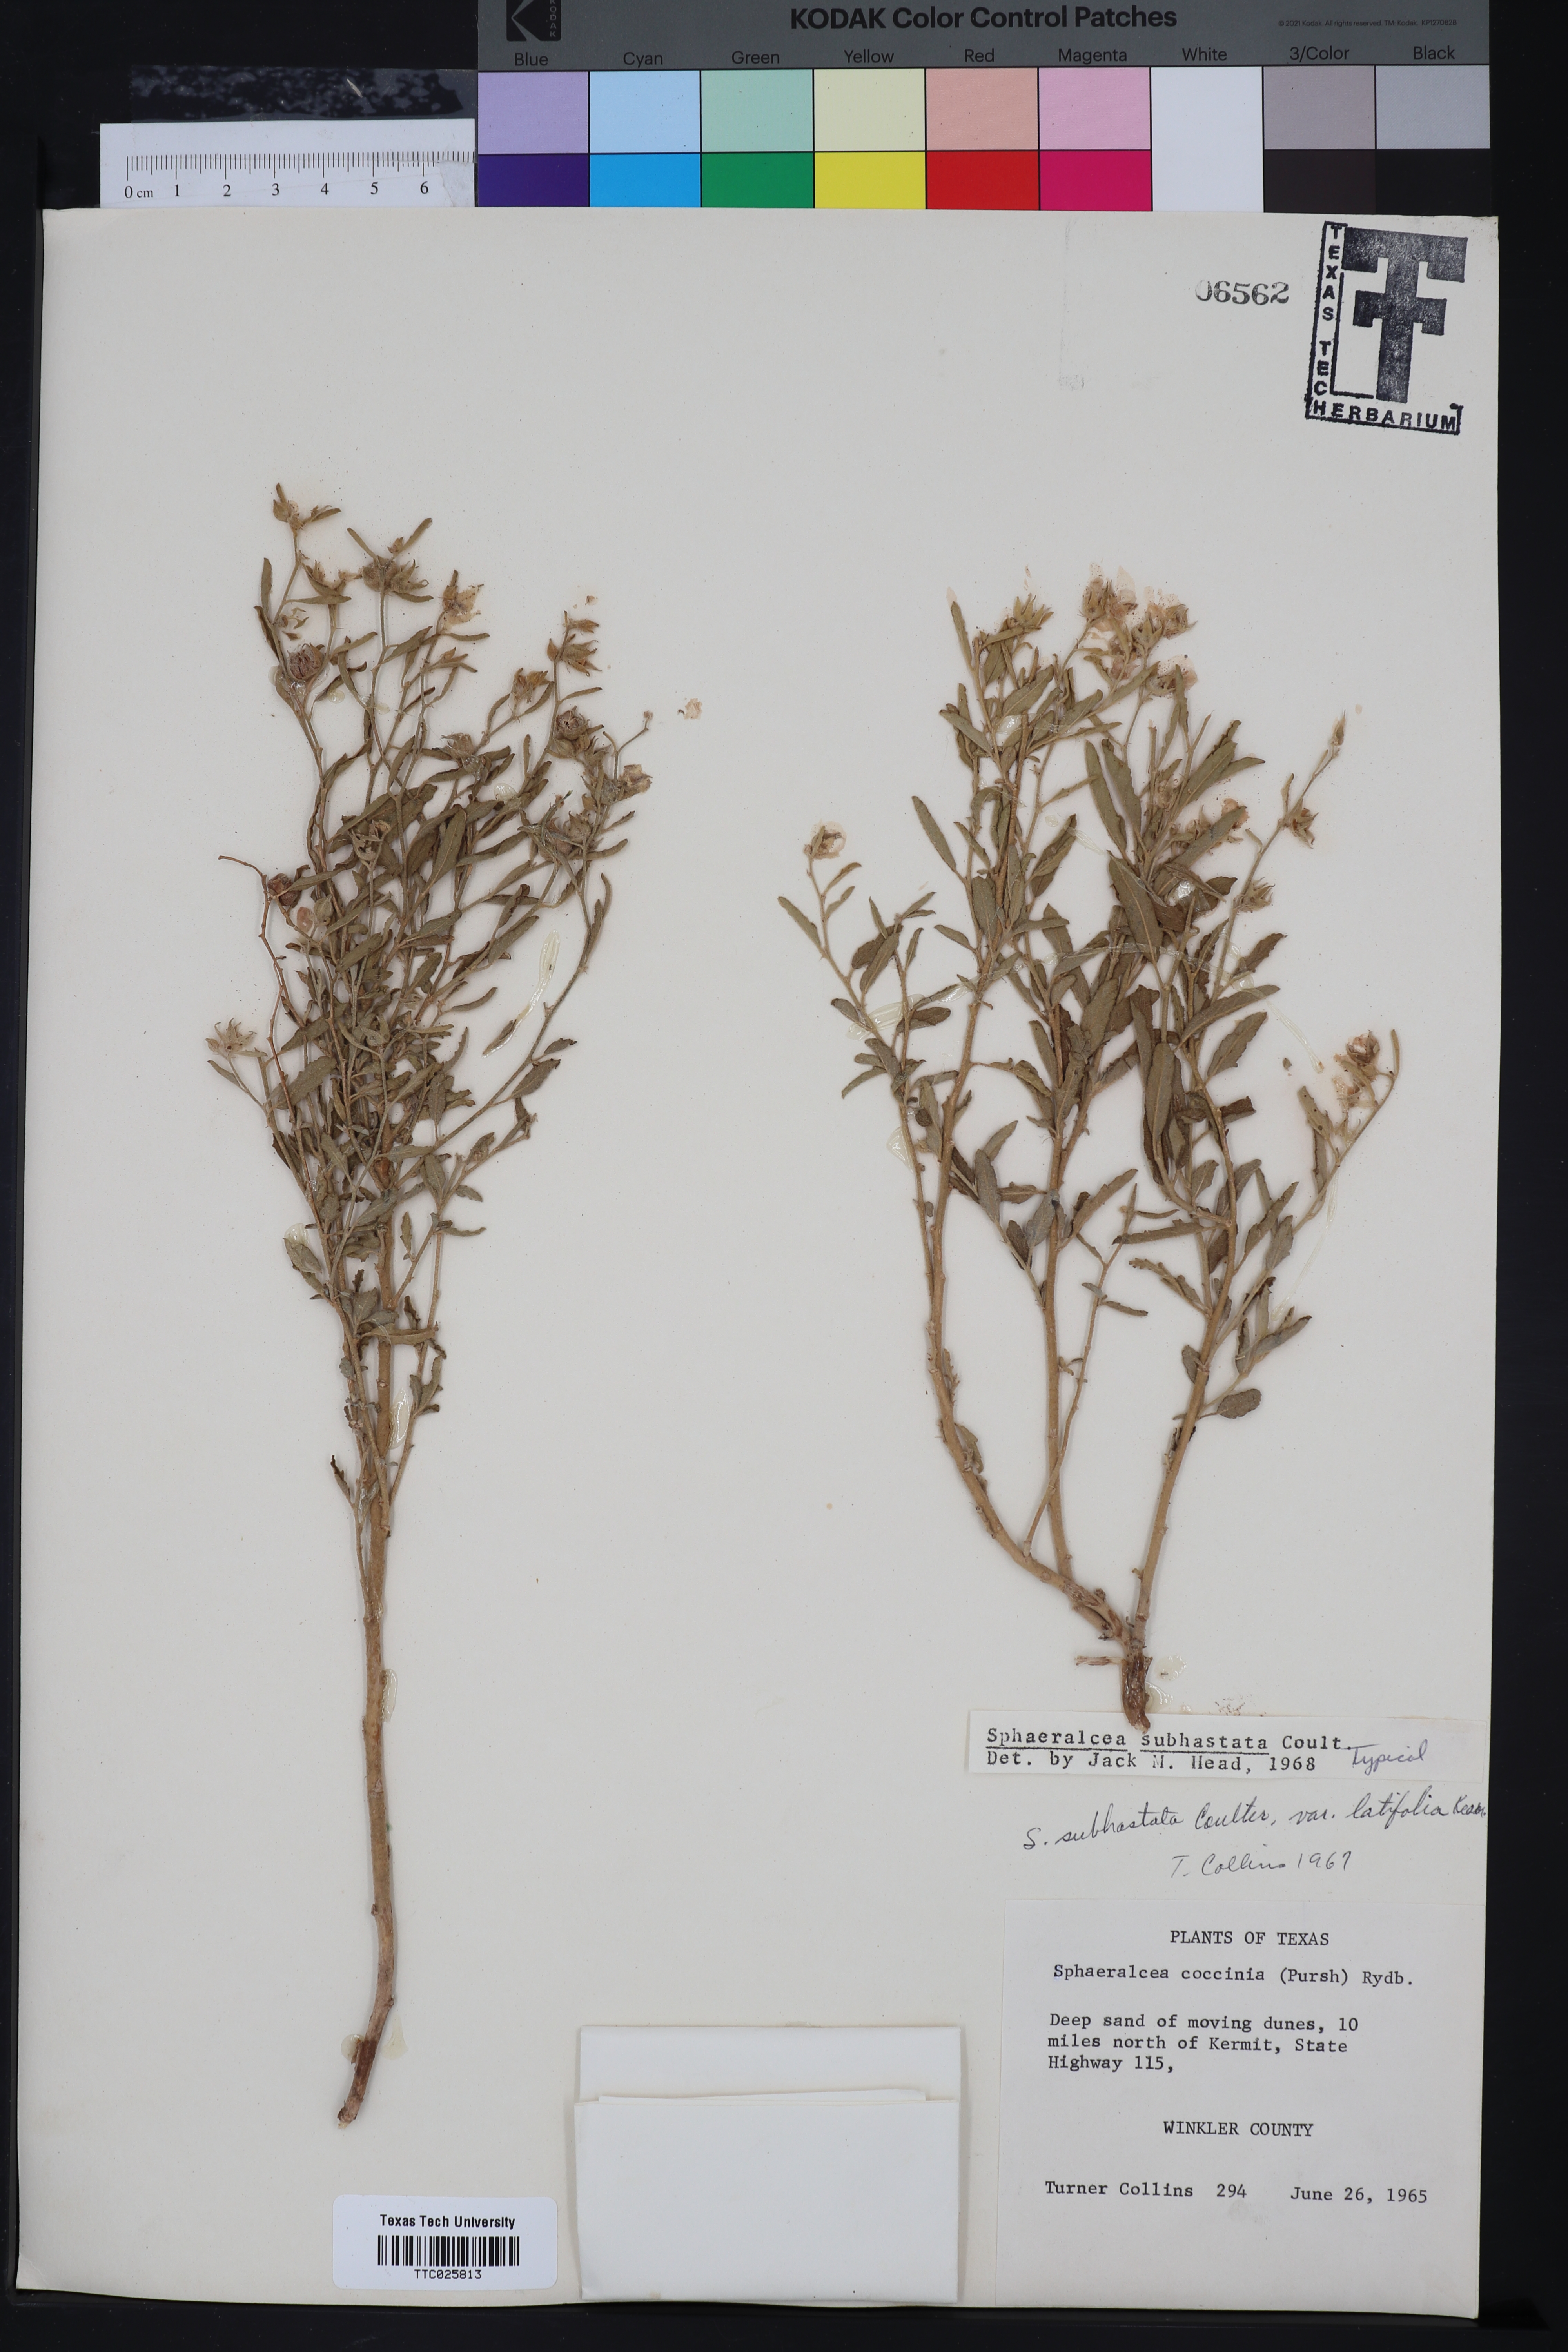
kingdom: Plantae
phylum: Tracheophyta
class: Magnoliopsida
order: Malvales
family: Malvaceae
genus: Sphaeralcea
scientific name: Sphaeralcea hastulata
